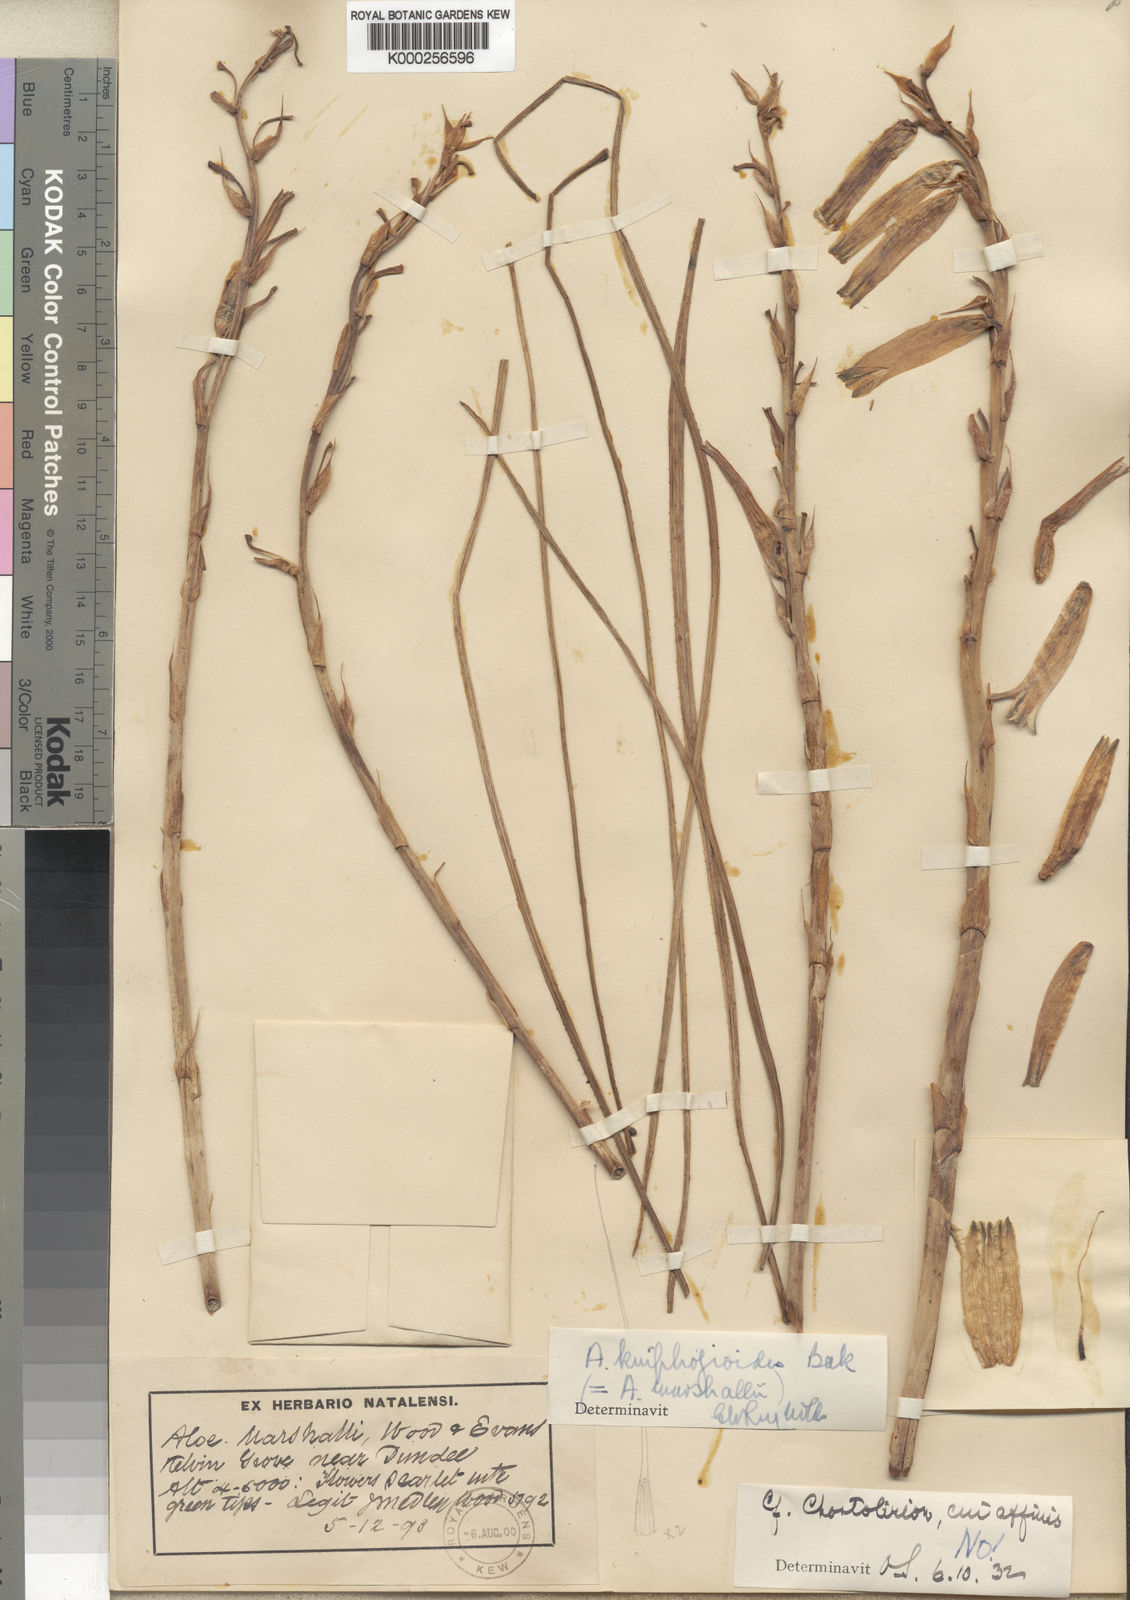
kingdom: Plantae
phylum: Tracheophyta
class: Liliopsida
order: Asparagales
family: Asphodelaceae
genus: Aloe
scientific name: Aloe kniphofioides
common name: Grass aloe
